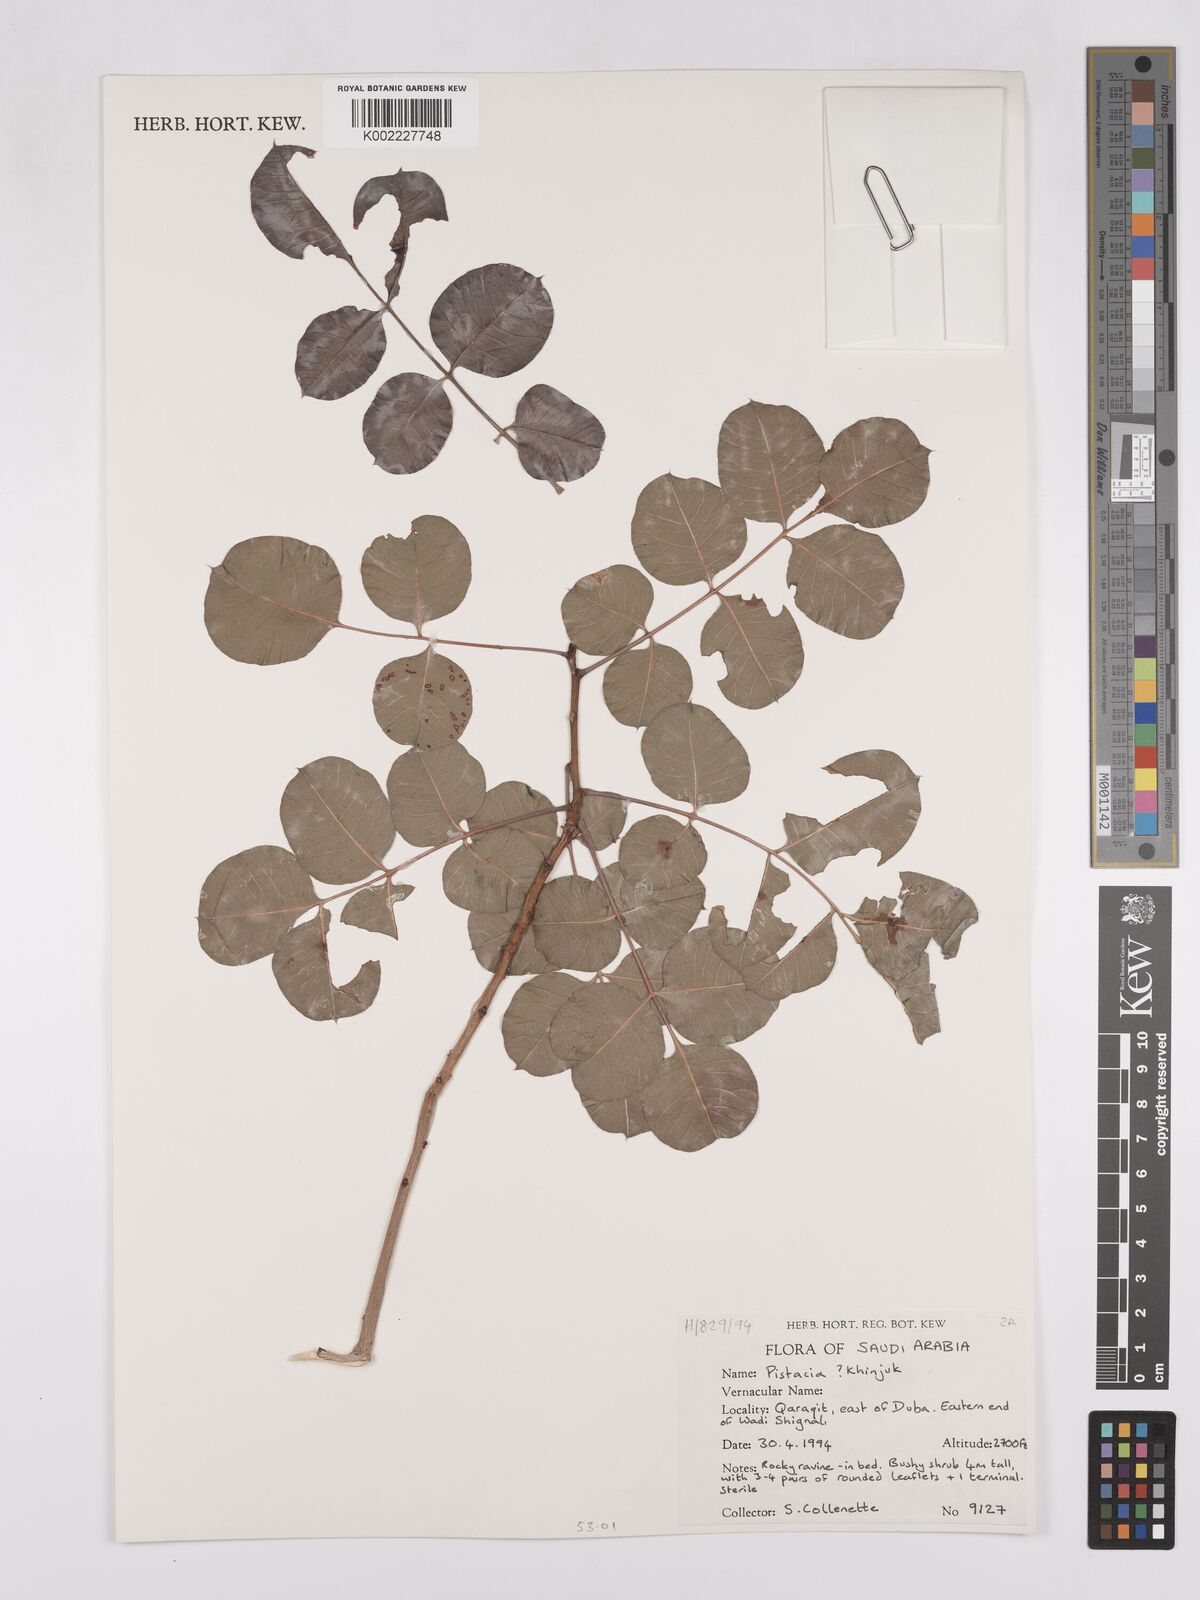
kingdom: Plantae
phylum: Tracheophyta
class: Magnoliopsida
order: Sapindales
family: Anacardiaceae
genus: Pistacia
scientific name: Pistacia khinjuk
